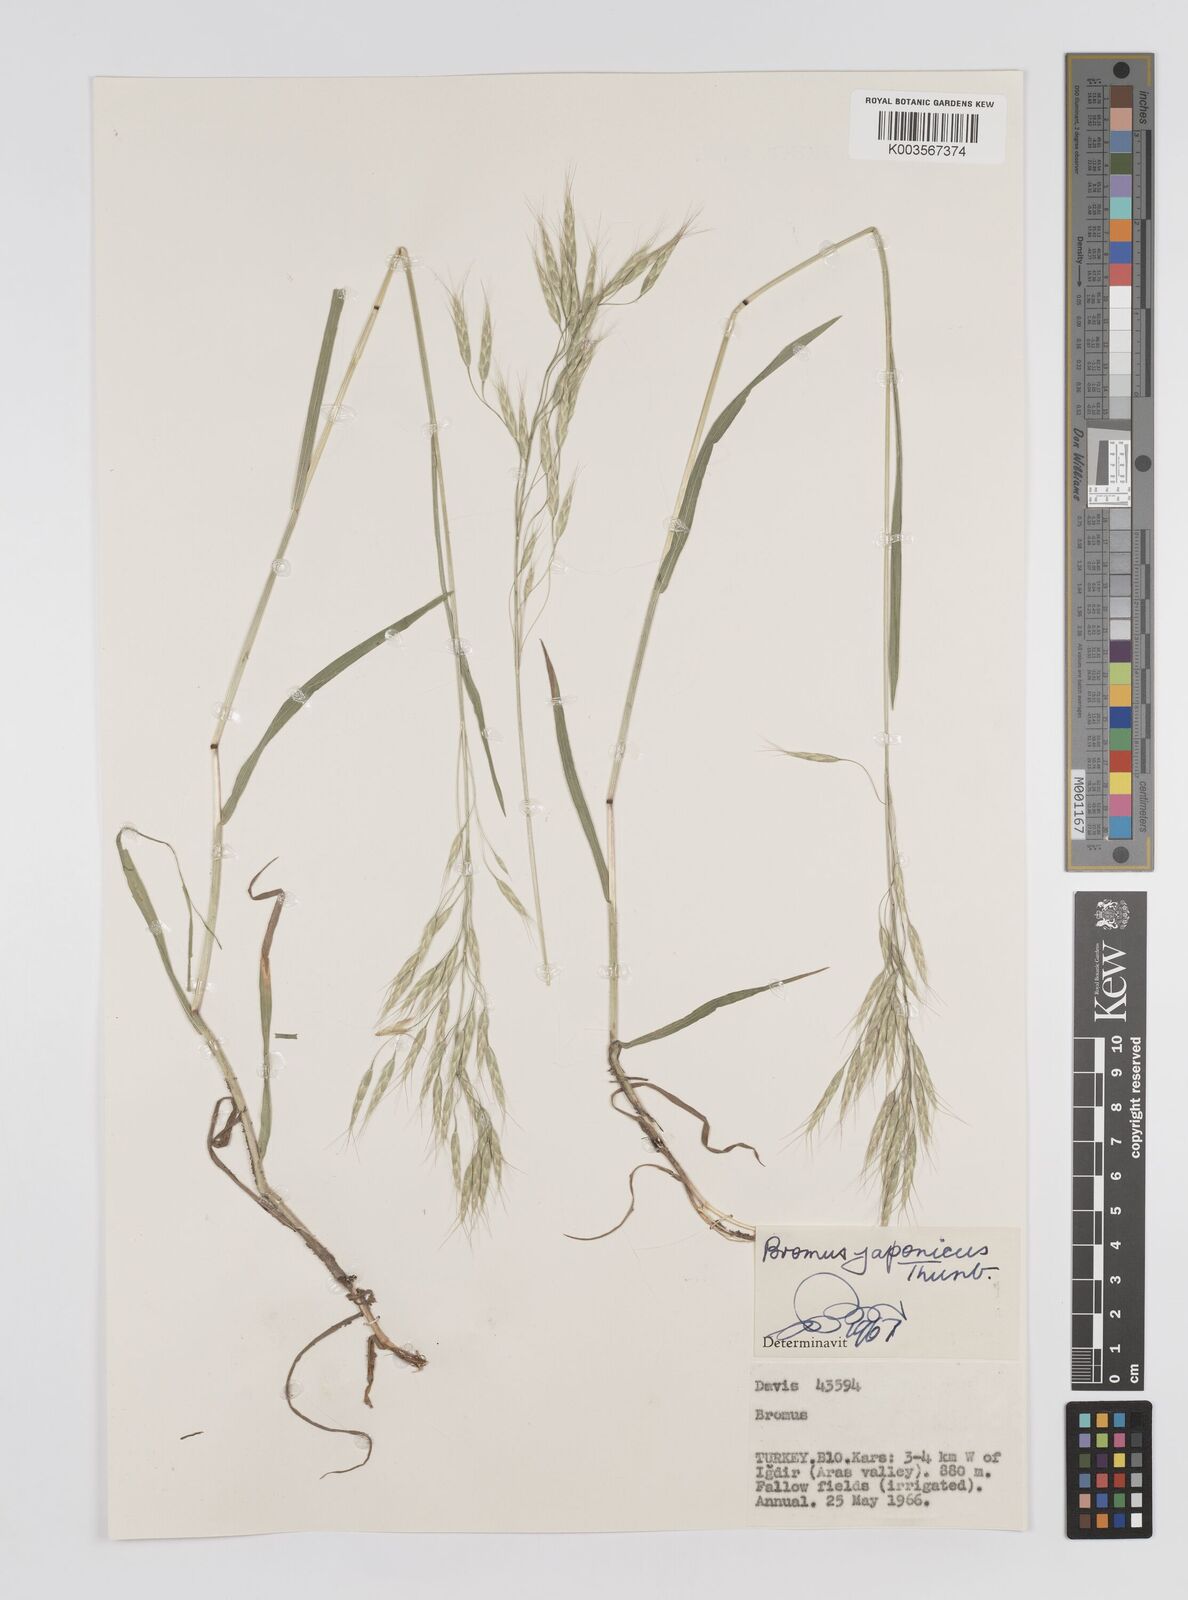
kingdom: Plantae
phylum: Tracheophyta
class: Liliopsida
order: Poales
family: Poaceae
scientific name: Poaceae
